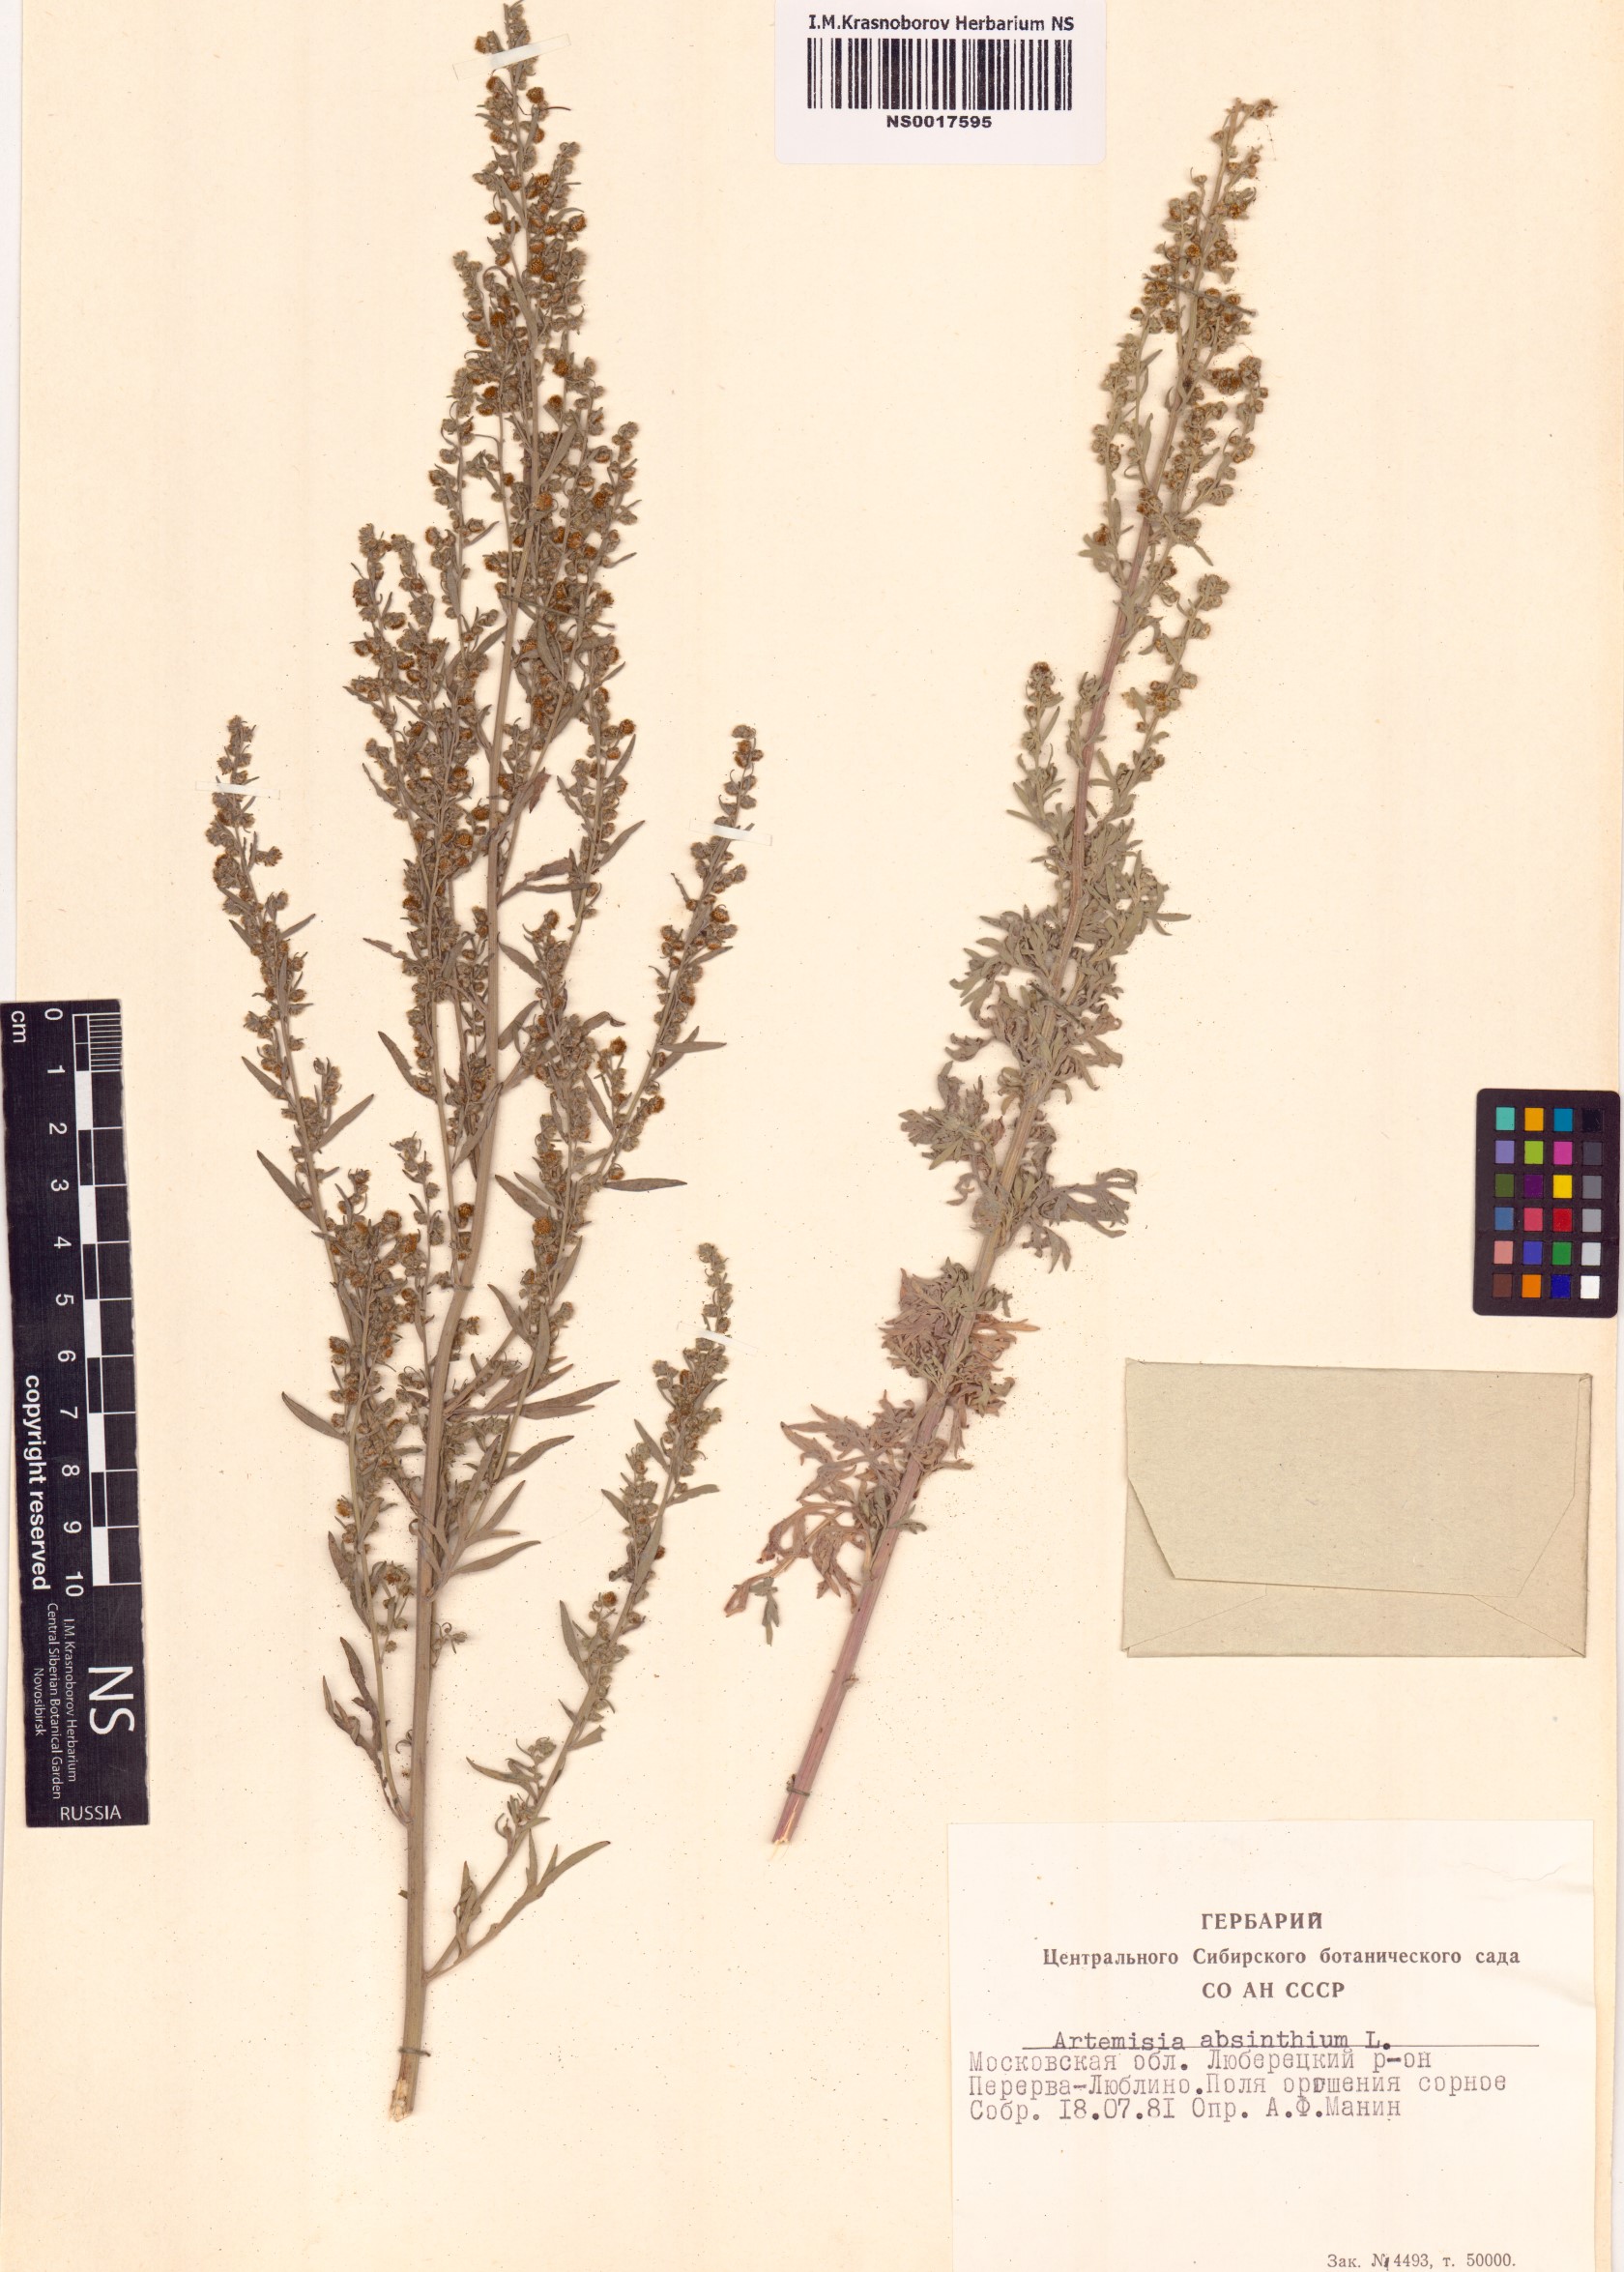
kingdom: Plantae
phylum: Tracheophyta
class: Magnoliopsida
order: Asterales
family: Asteraceae
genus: Artemisia
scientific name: Artemisia absinthium
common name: Wormwood
